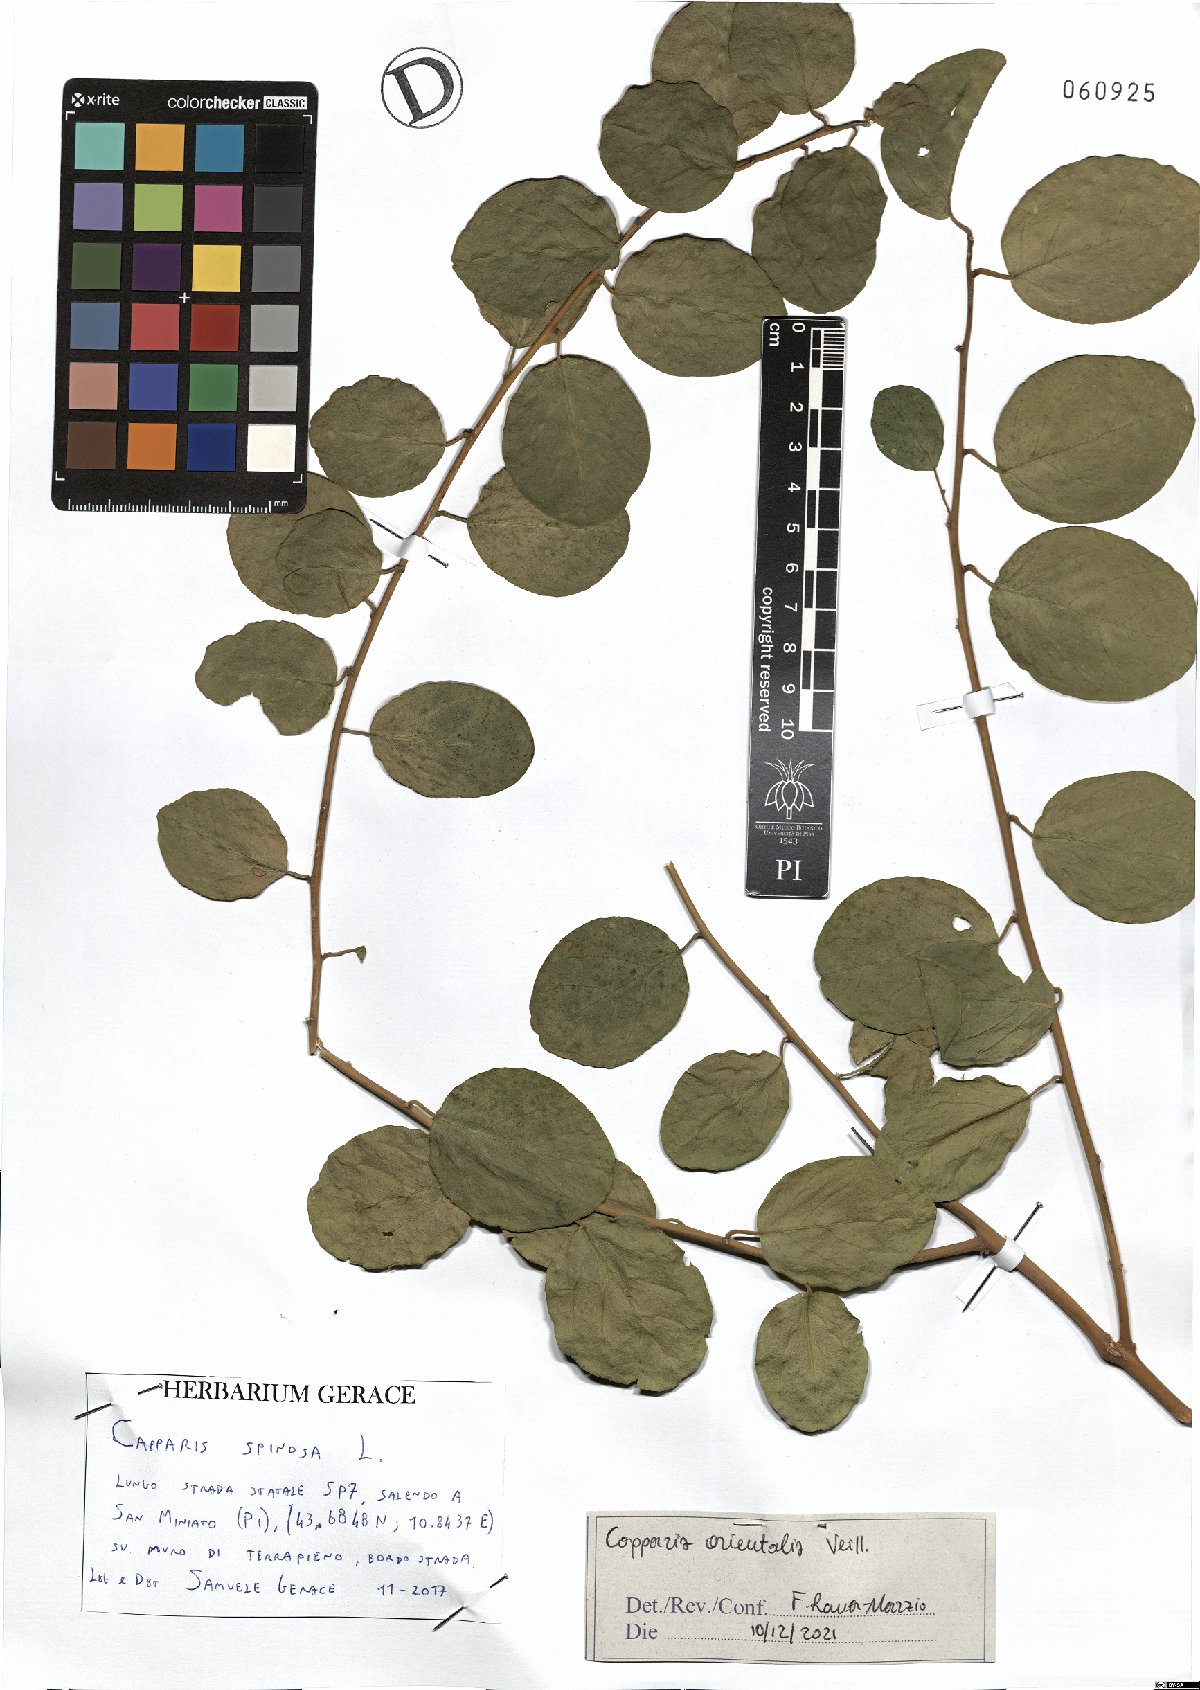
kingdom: Plantae
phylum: Tracheophyta
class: Magnoliopsida
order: Brassicales
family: Capparaceae
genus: Capparis
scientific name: Capparis spinosa
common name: Caper
